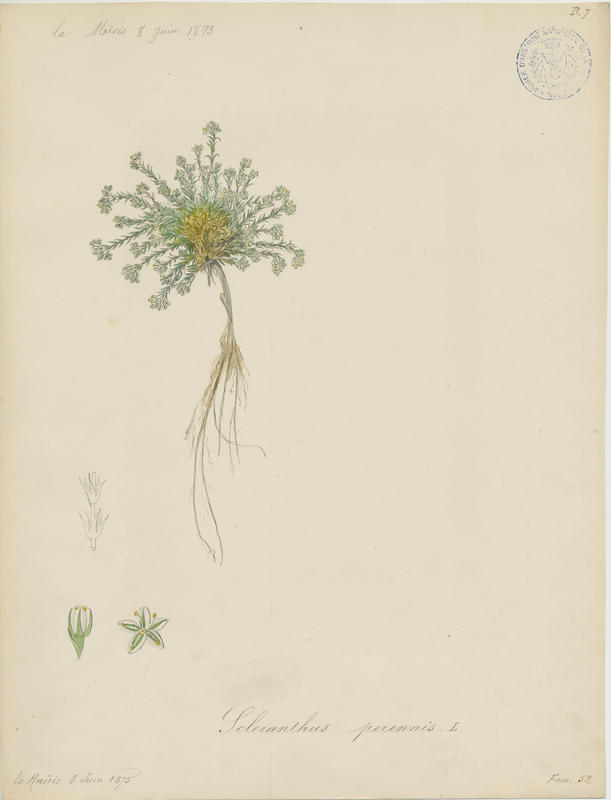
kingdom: Plantae
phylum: Tracheophyta
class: Magnoliopsida
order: Caryophyllales
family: Caryophyllaceae
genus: Scleranthus
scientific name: Scleranthus perennis
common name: Perennial knawel
